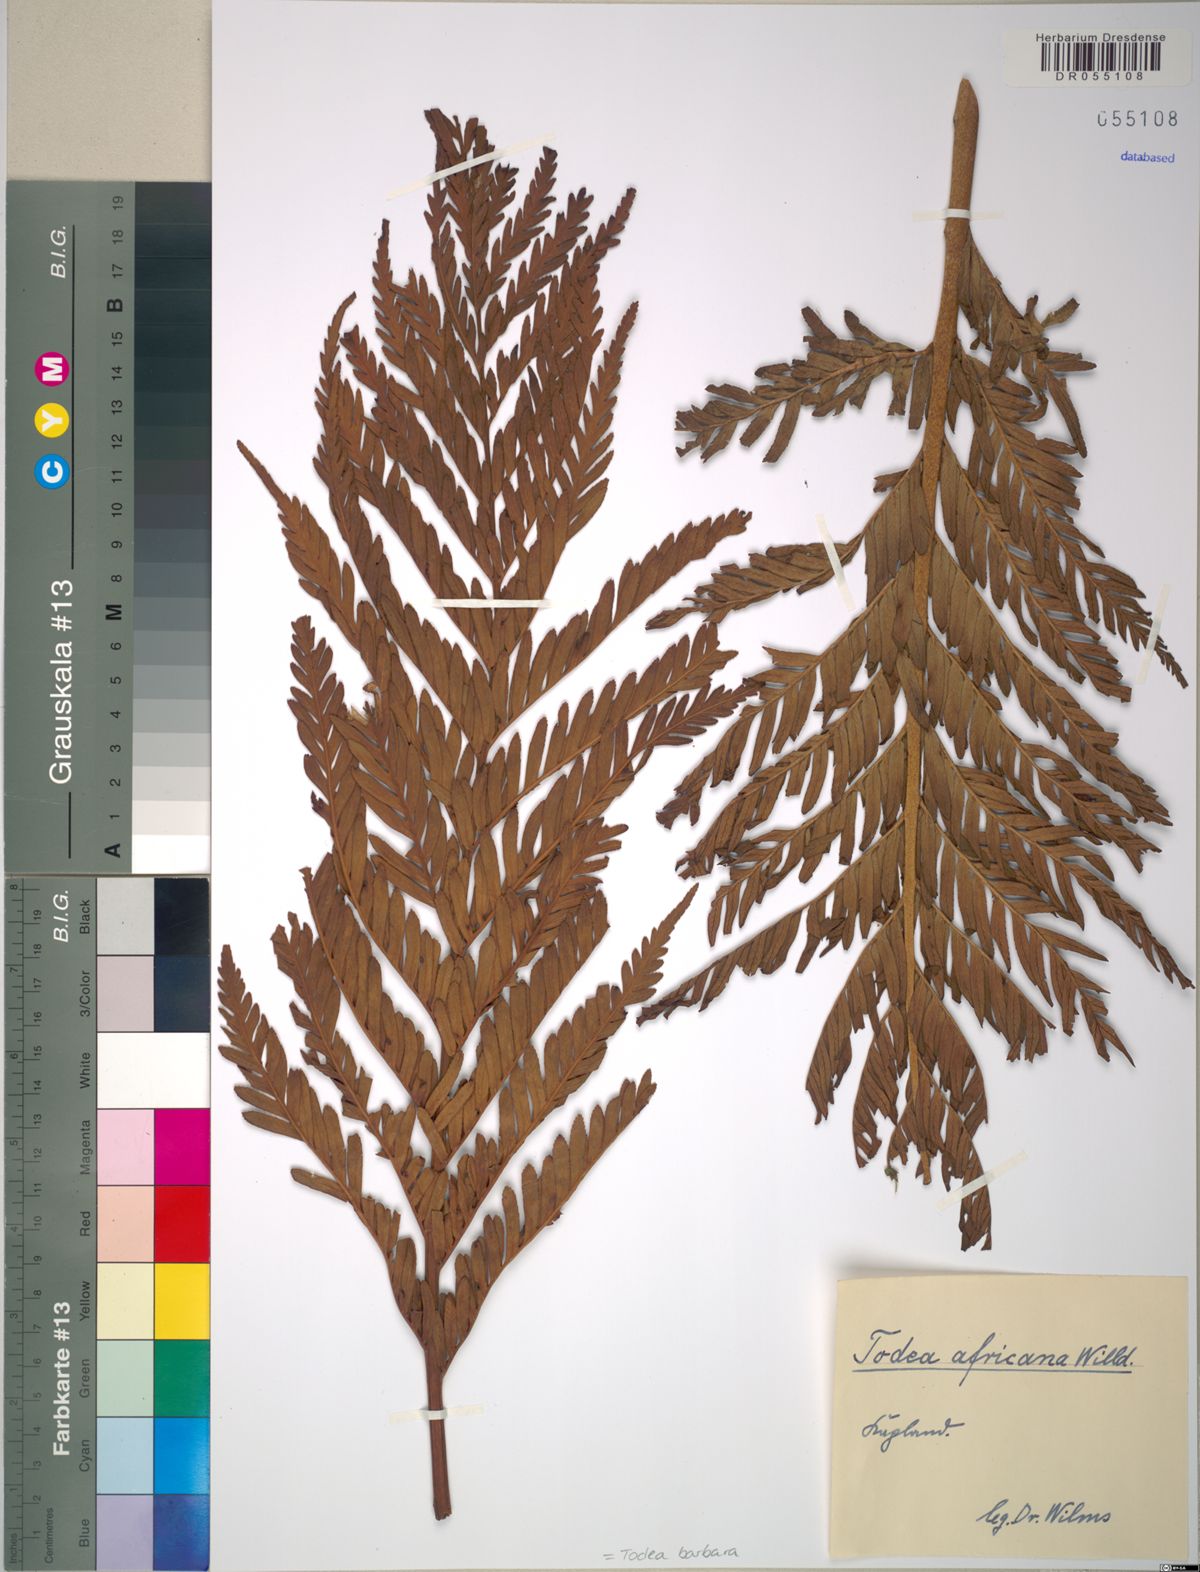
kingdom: Plantae
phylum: Tracheophyta
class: Polypodiopsida
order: Osmundales
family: Osmundaceae
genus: Todea
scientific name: Todea barbara
